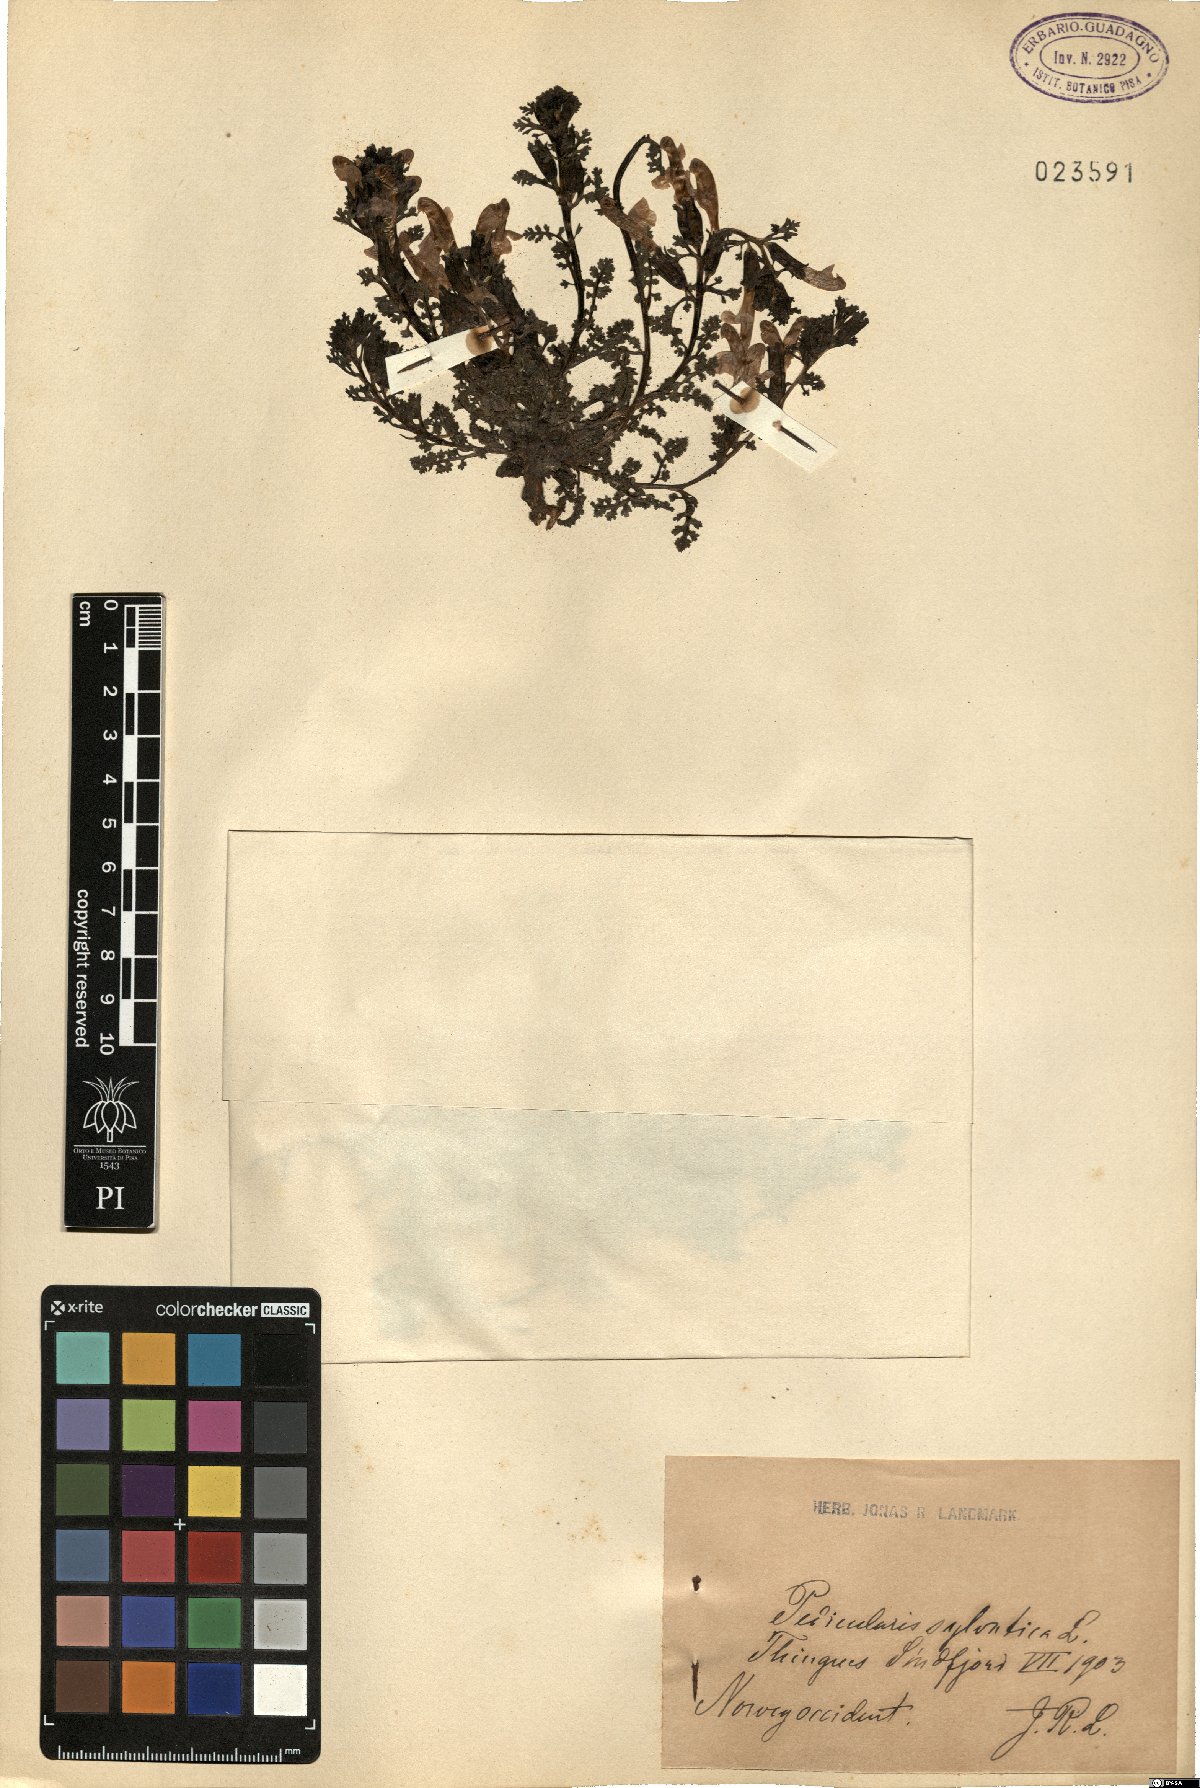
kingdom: Plantae
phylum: Tracheophyta
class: Magnoliopsida
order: Lamiales
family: Orobanchaceae
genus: Pedicularis
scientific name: Pedicularis sylvatica
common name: Lousewort
